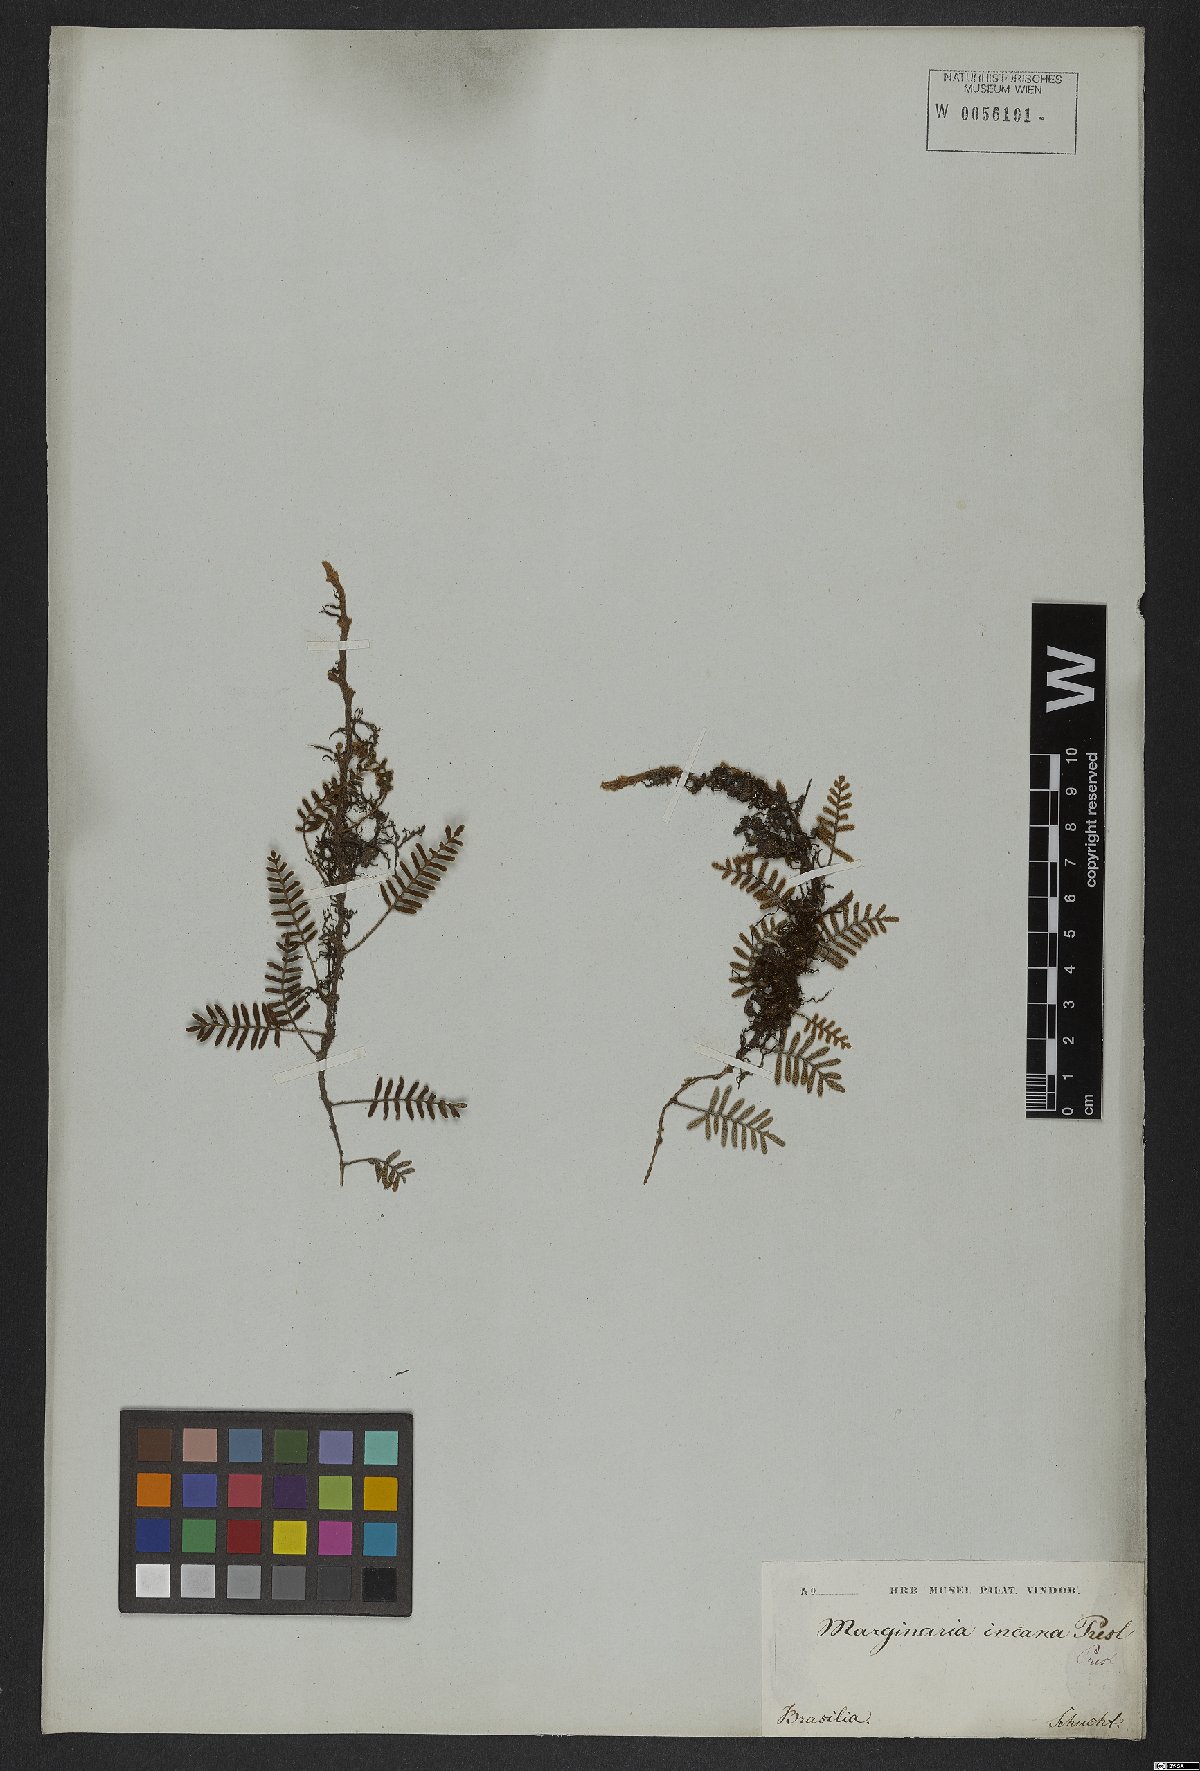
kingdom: Plantae
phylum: Tracheophyta
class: Polypodiopsida
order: Polypodiales
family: Polypodiaceae
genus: Pleopeltis
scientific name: Pleopeltis polypodioides
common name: Resurrection fern
